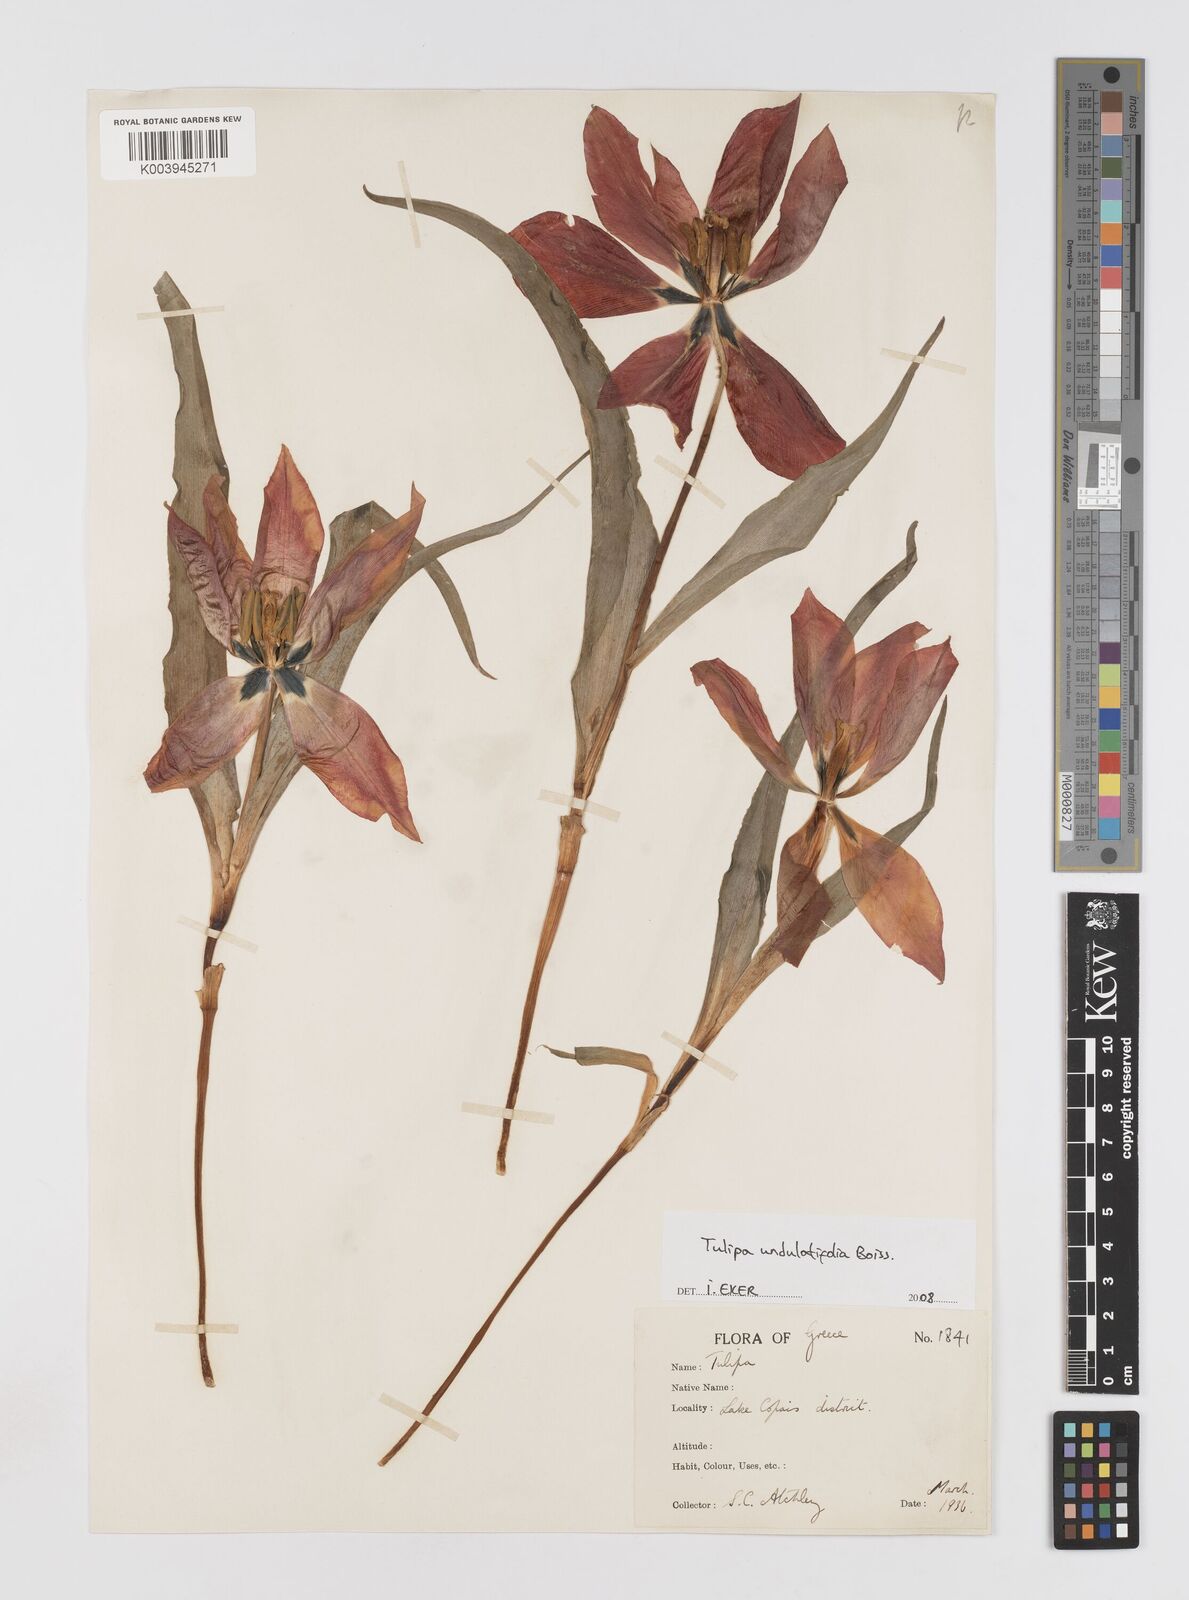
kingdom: Plantae
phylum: Tracheophyta
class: Liliopsida
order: Liliales
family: Liliaceae
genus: Tulipa
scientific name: Tulipa undulatifolia
